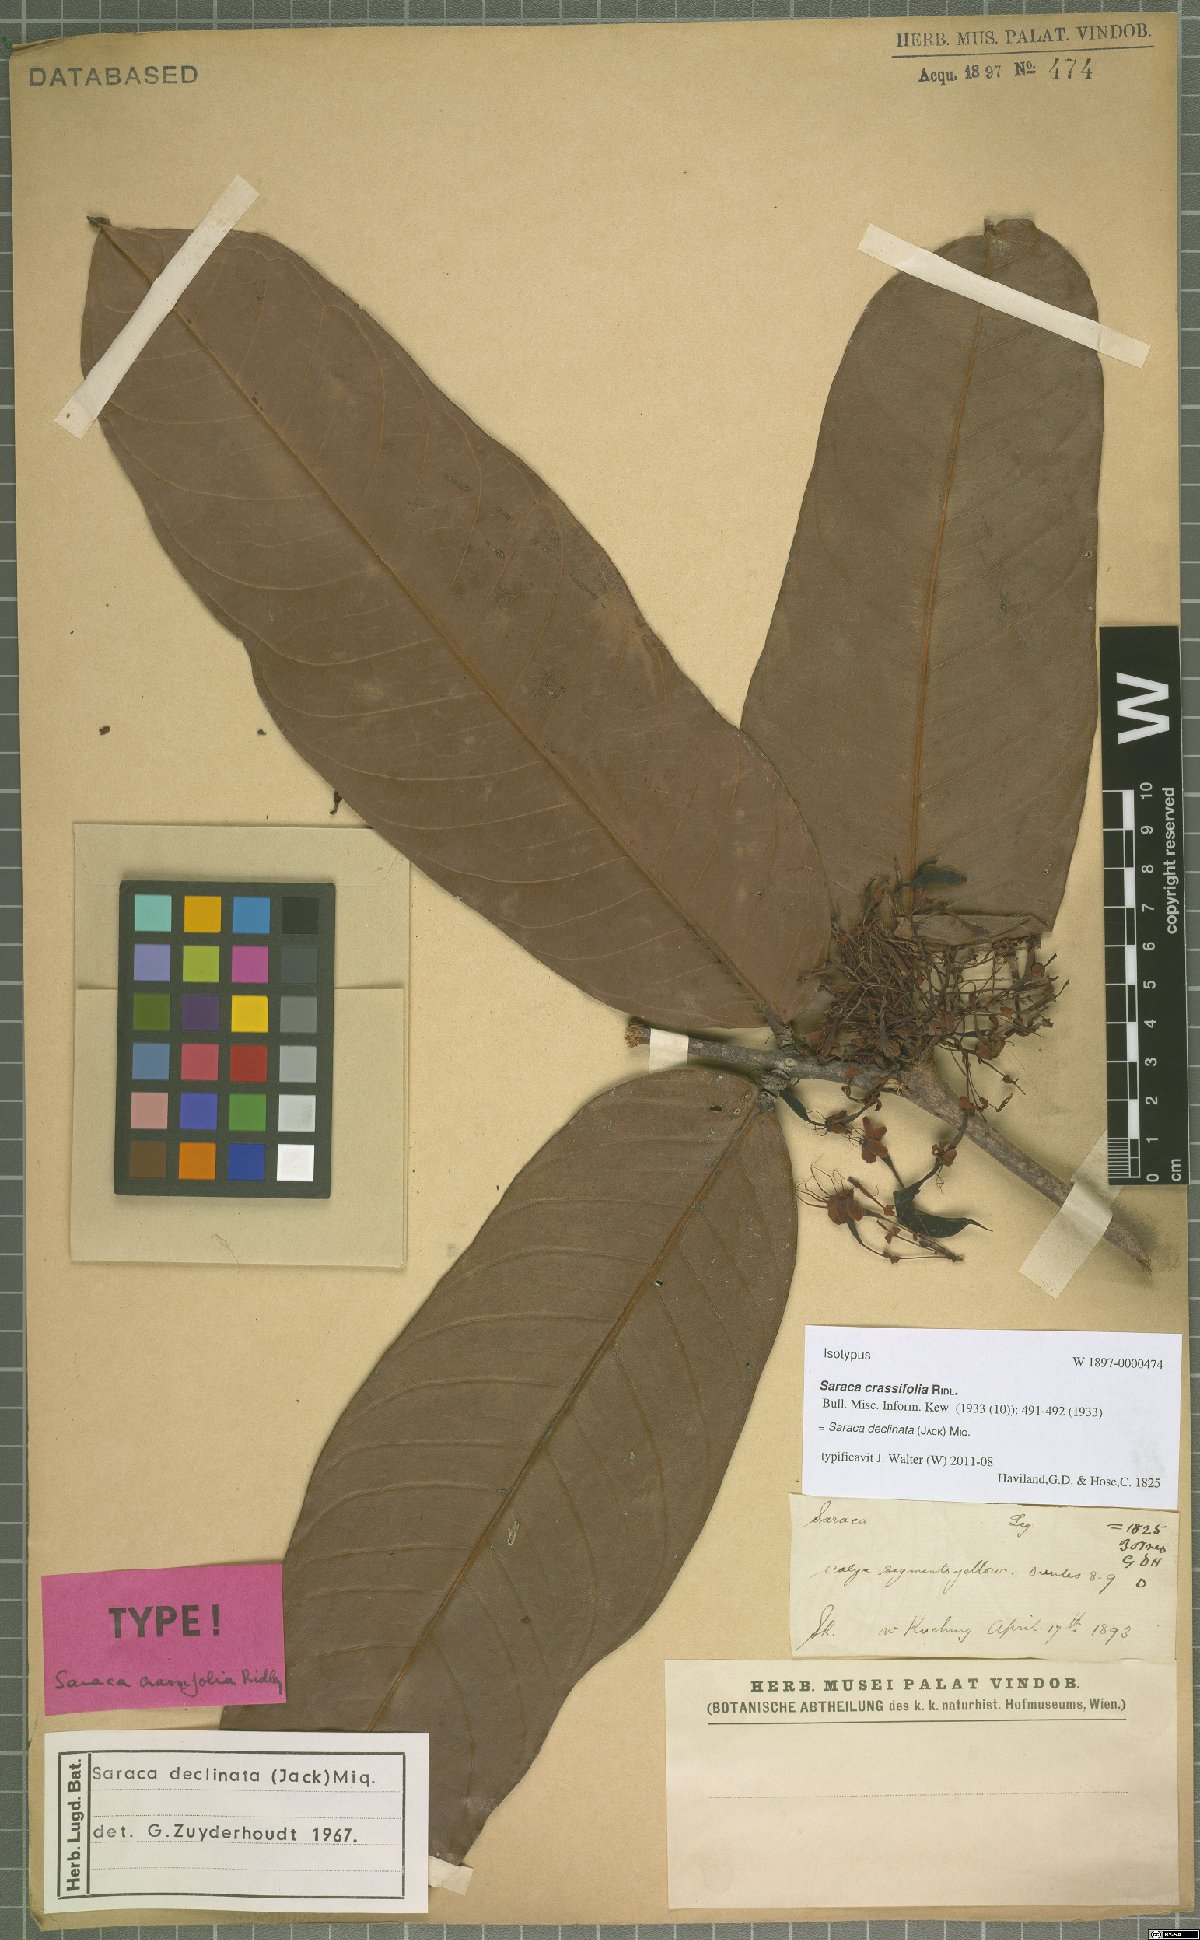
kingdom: Plantae
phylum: Tracheophyta
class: Magnoliopsida
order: Fabales
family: Fabaceae
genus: Saraca
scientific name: Saraca declinata
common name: Red saraca
